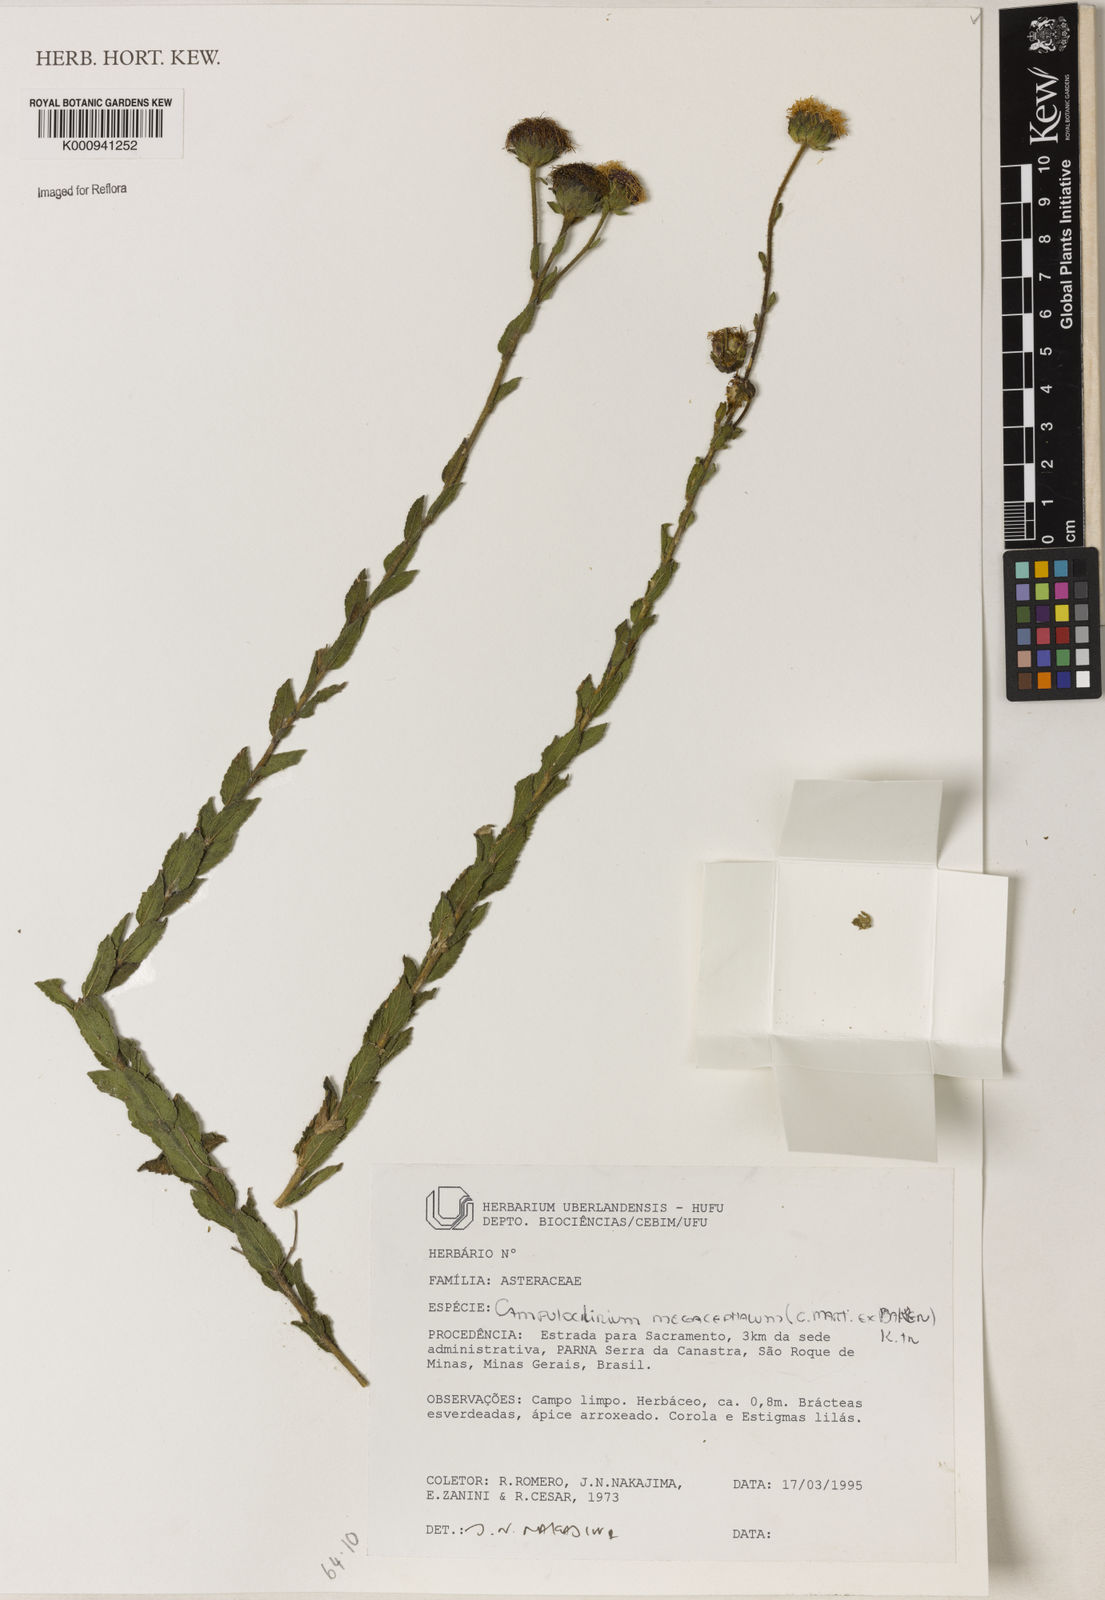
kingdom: Plantae
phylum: Tracheophyta
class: Magnoliopsida
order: Asterales
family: Asteraceae
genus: Campuloclinium
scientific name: Campuloclinium megacephalum
